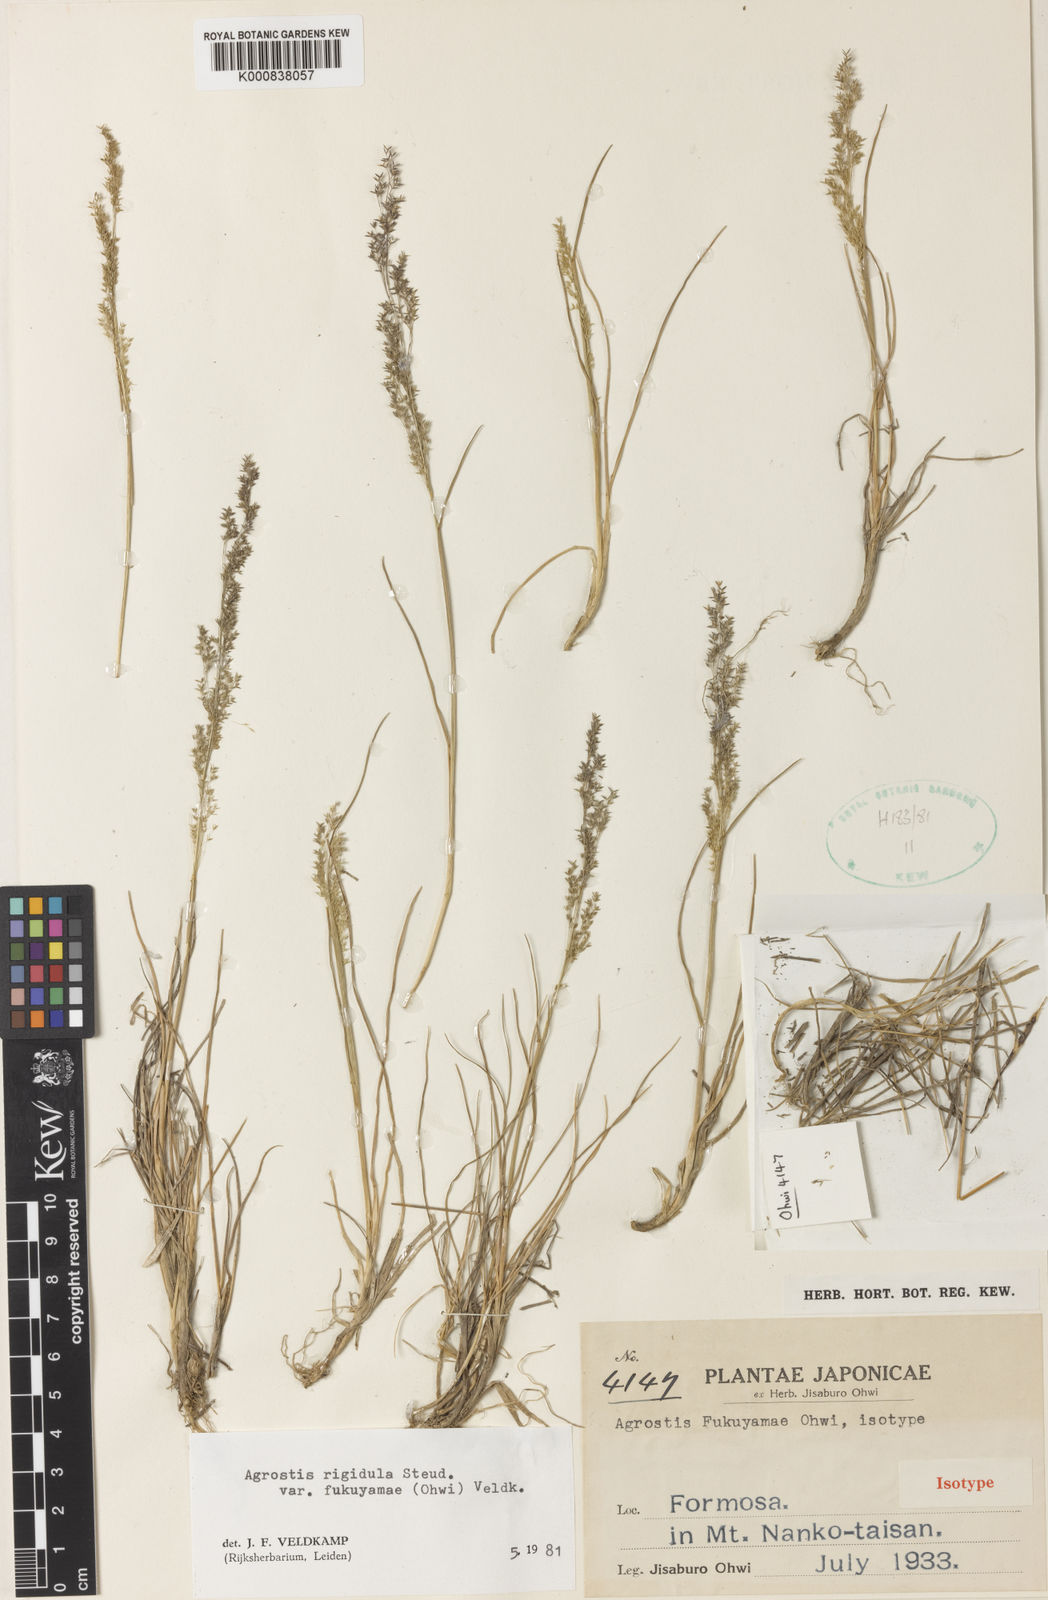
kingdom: Plantae
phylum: Tracheophyta
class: Liliopsida
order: Poales
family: Poaceae
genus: Agrostis
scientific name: Agrostis infirma
